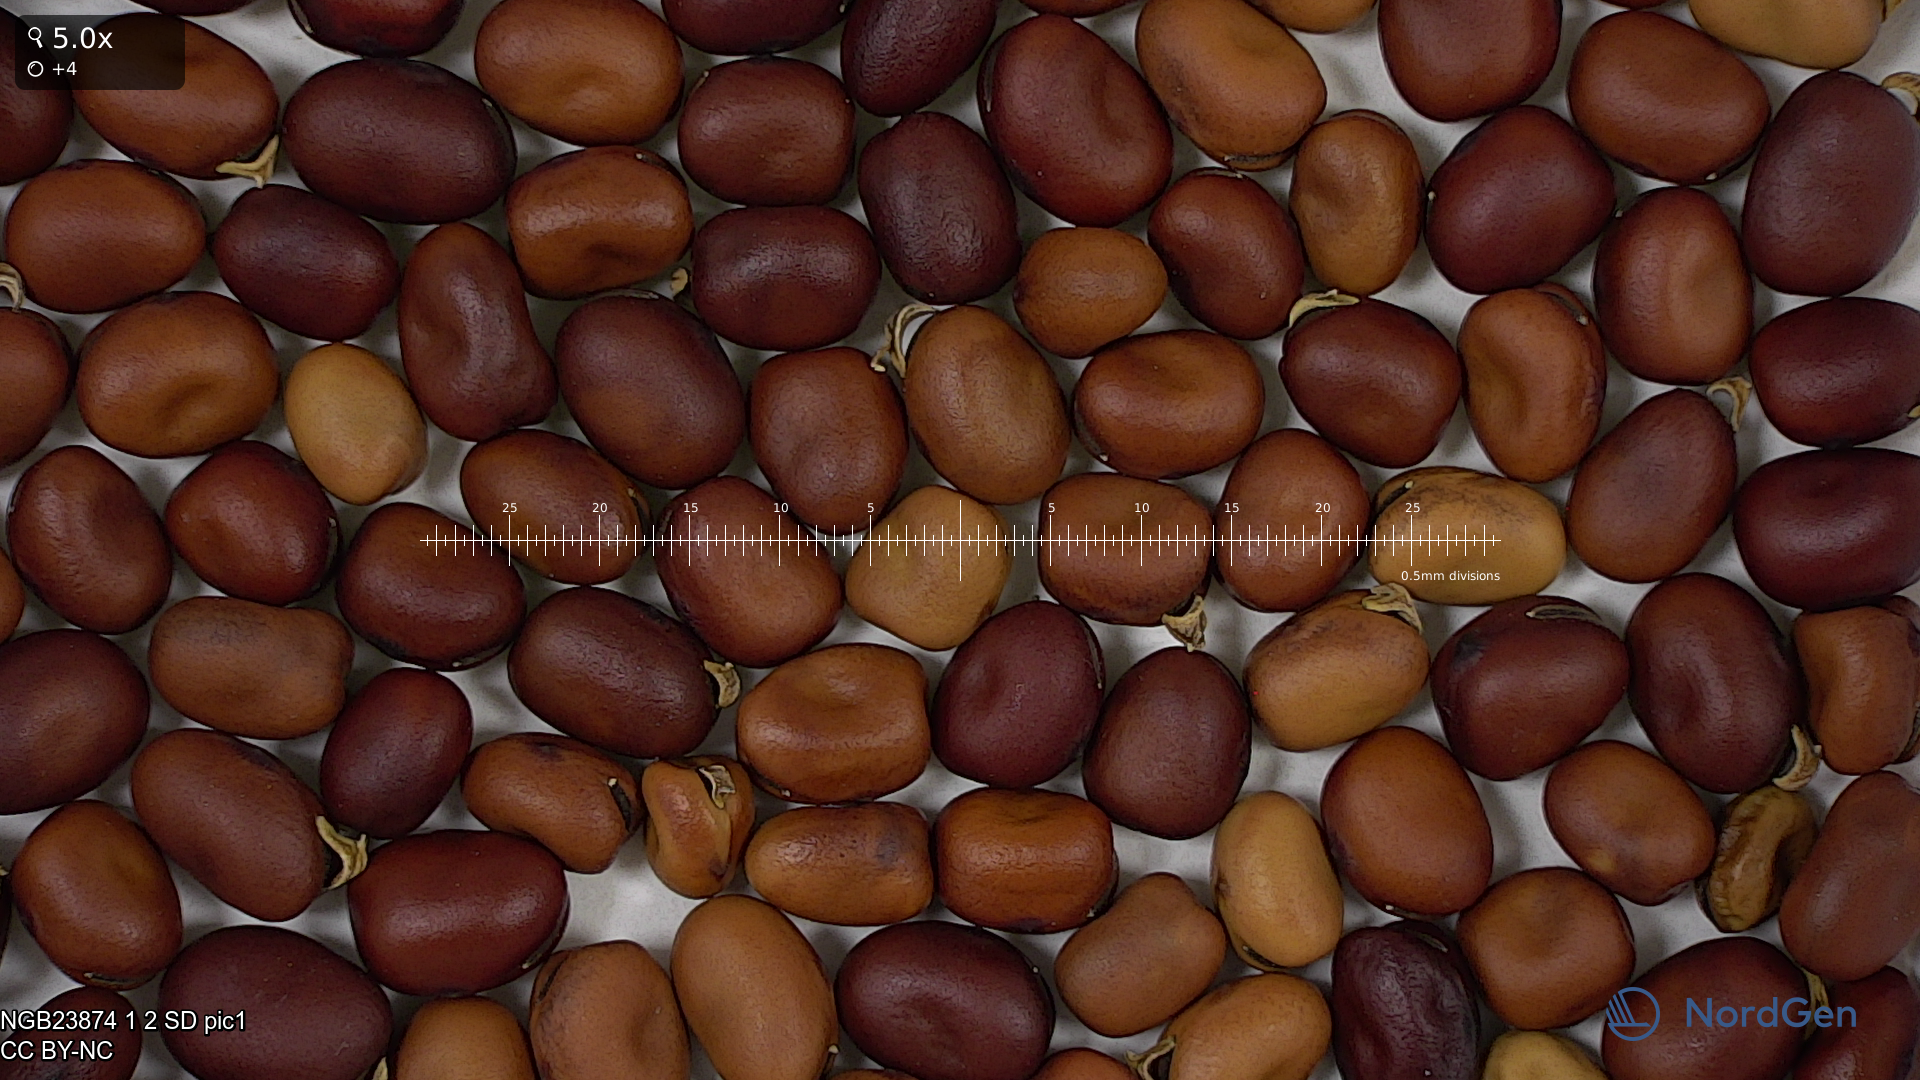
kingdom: Plantae
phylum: Tracheophyta
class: Magnoliopsida
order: Fabales
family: Fabaceae
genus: Vicia
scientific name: Vicia faba
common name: Broad bean
